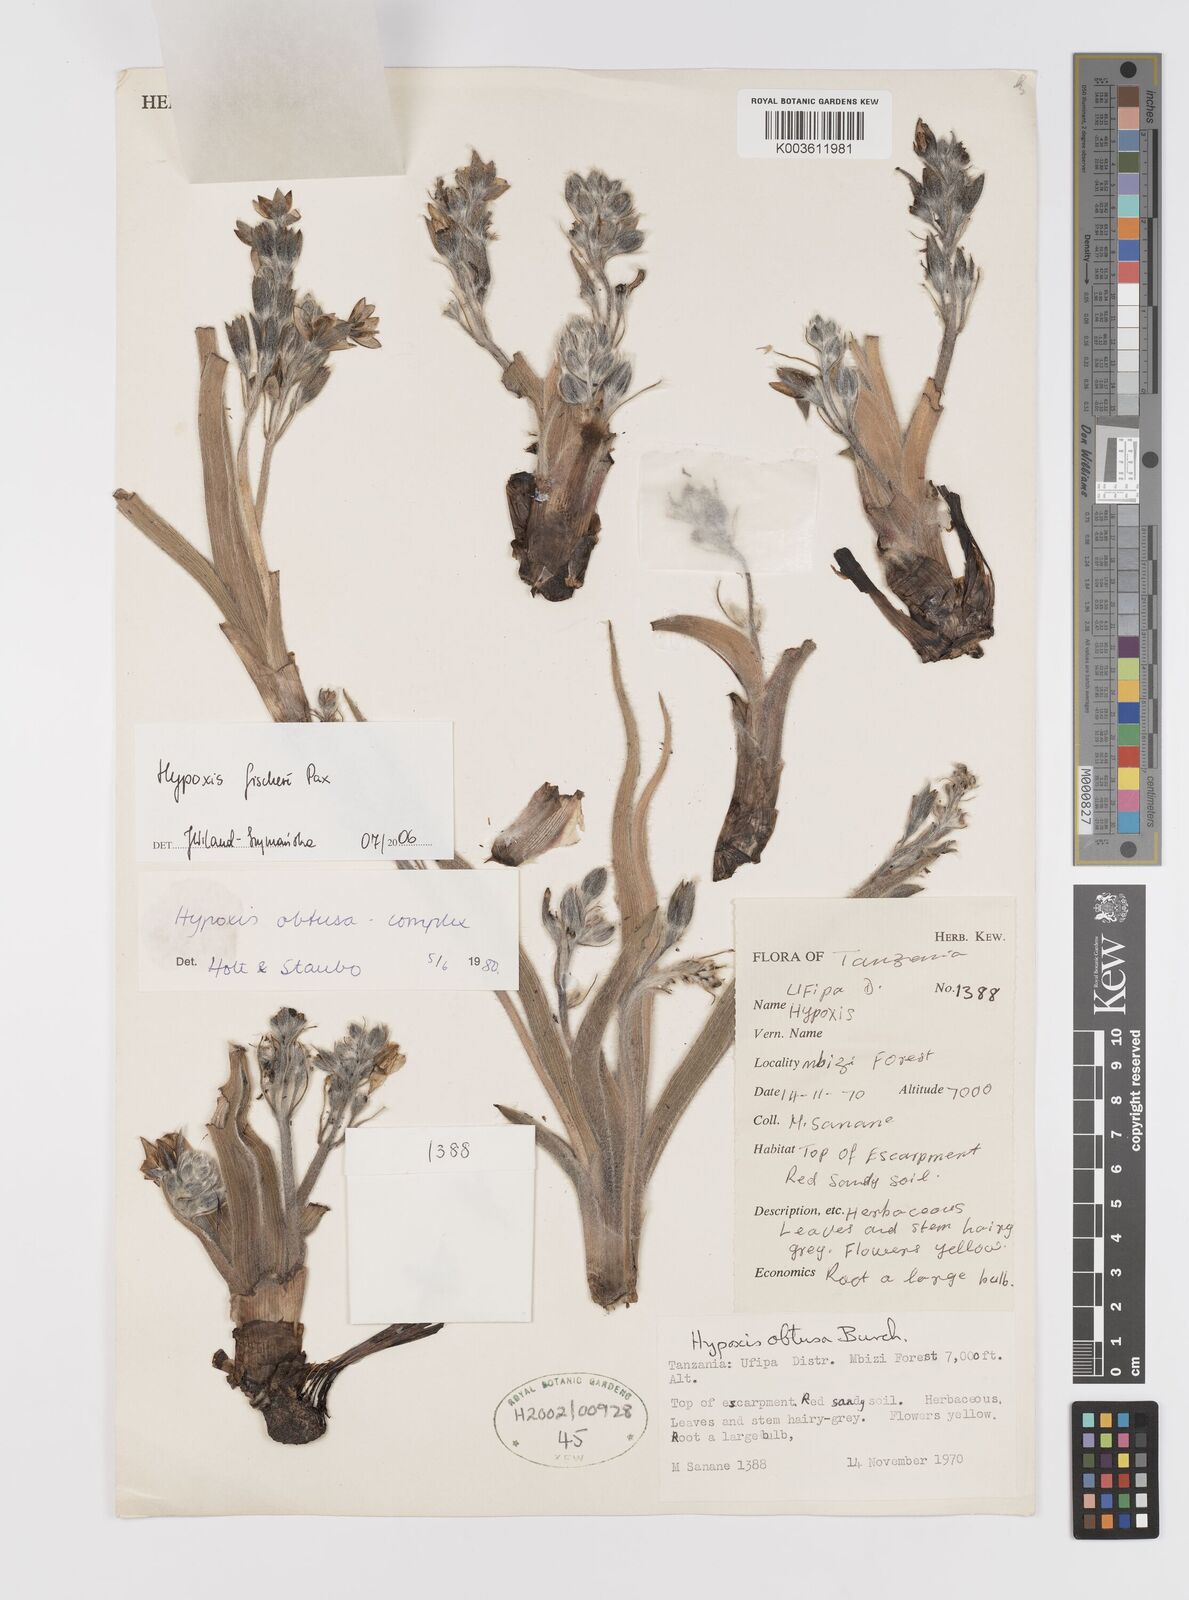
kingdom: Plantae
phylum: Tracheophyta
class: Liliopsida
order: Asparagales
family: Hypoxidaceae
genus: Hypoxis
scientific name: Hypoxis fischeri
